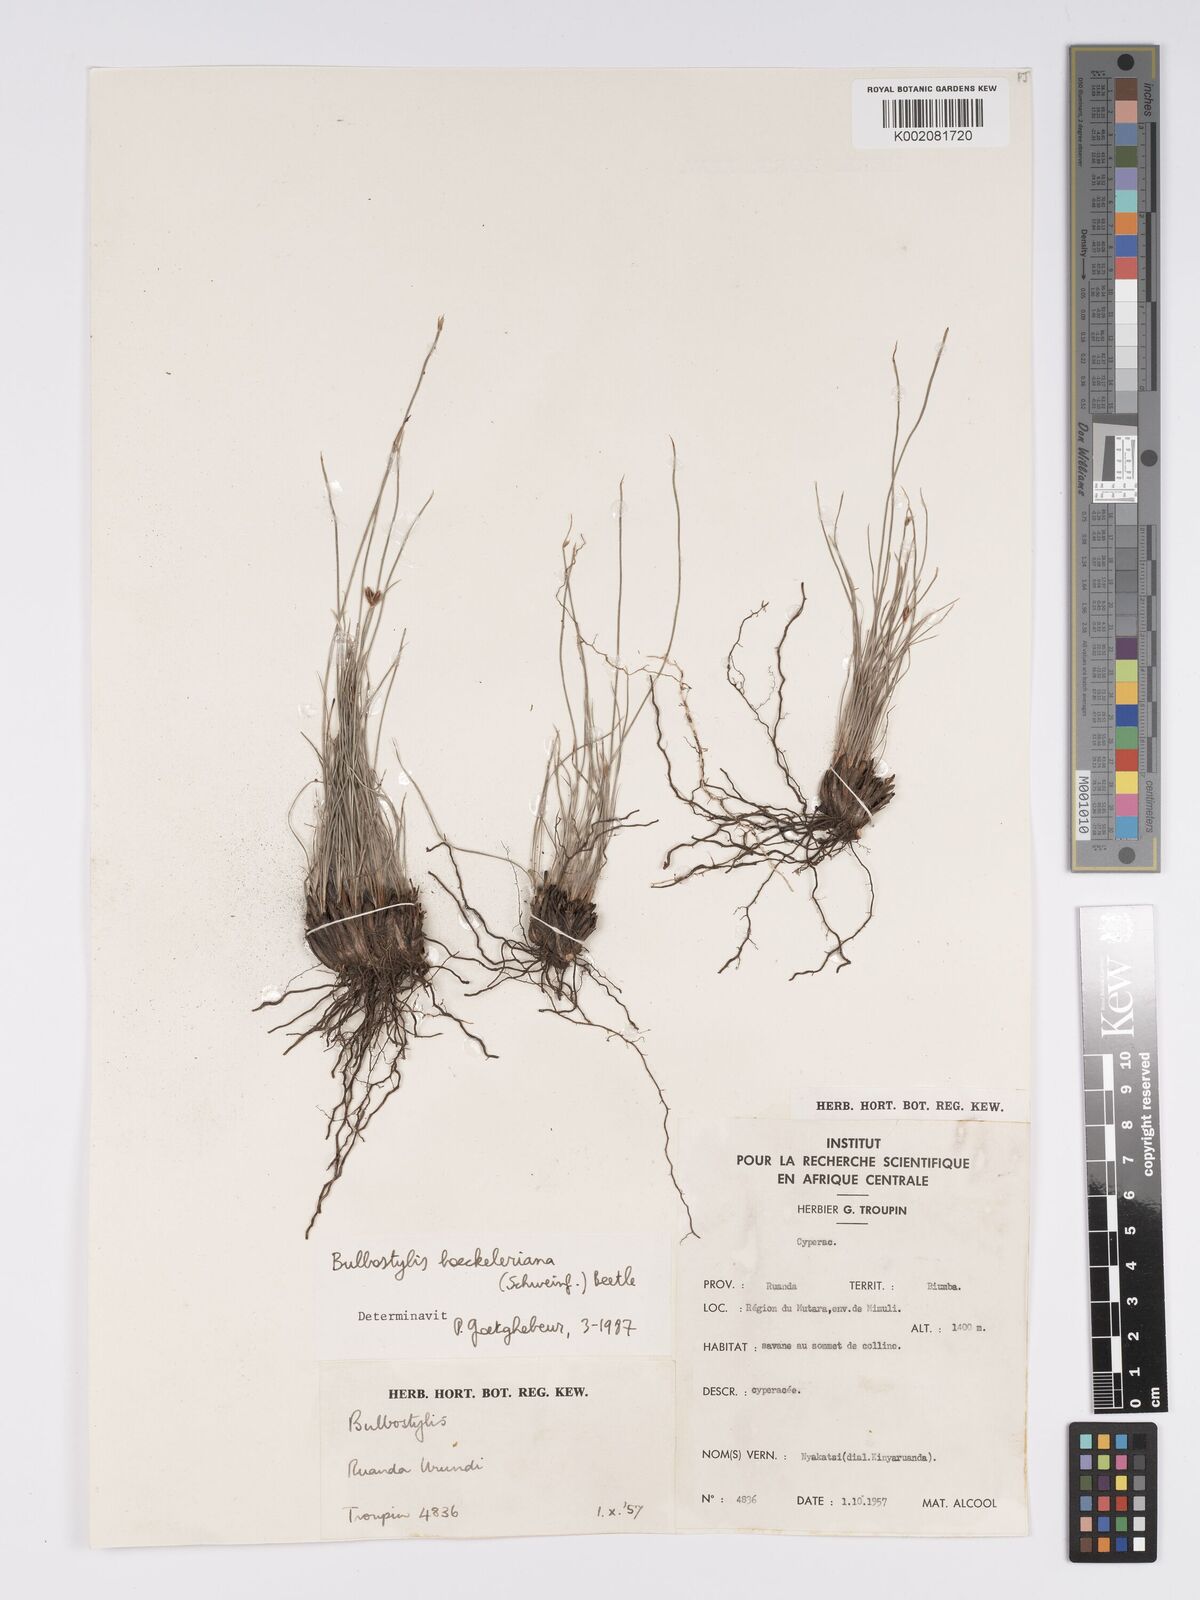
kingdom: Plantae
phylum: Tracheophyta
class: Liliopsida
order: Poales
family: Cyperaceae
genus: Bulbostylis
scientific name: Bulbostylis boeckeleriana
